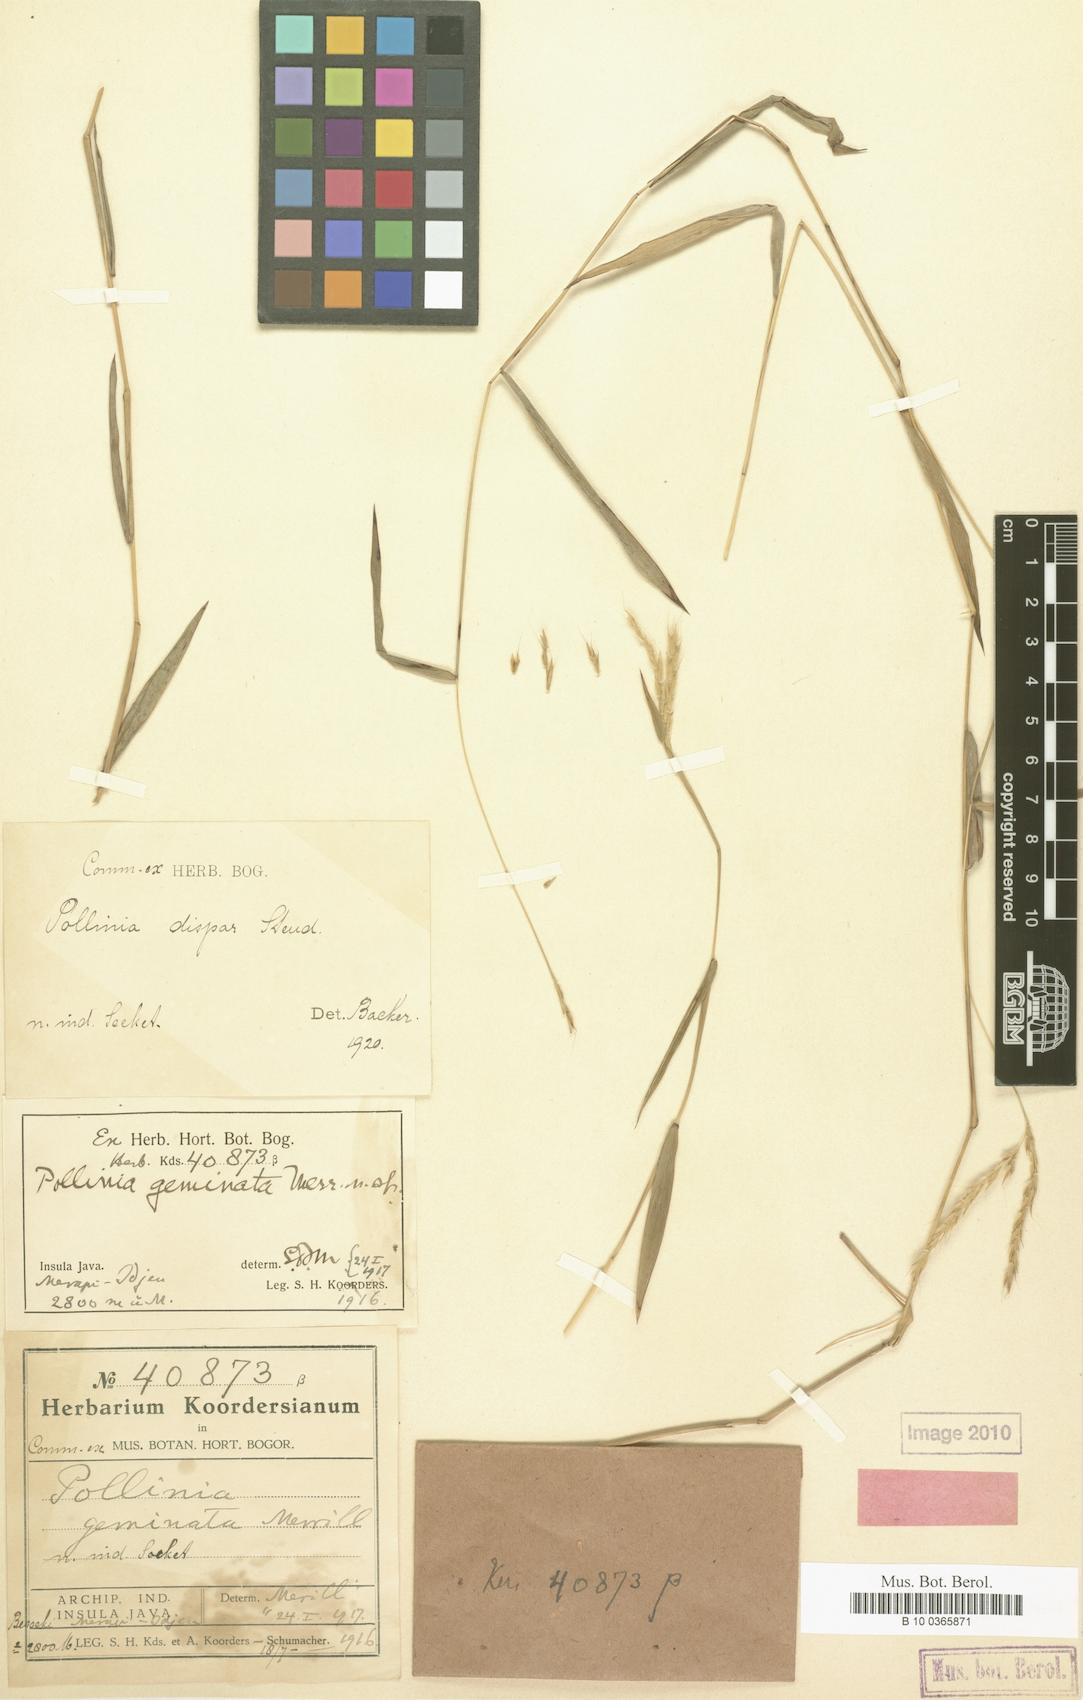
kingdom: Plantae
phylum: Tracheophyta
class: Liliopsida
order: Poales
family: Poaceae
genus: Microstegium
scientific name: Microstegium dispar
